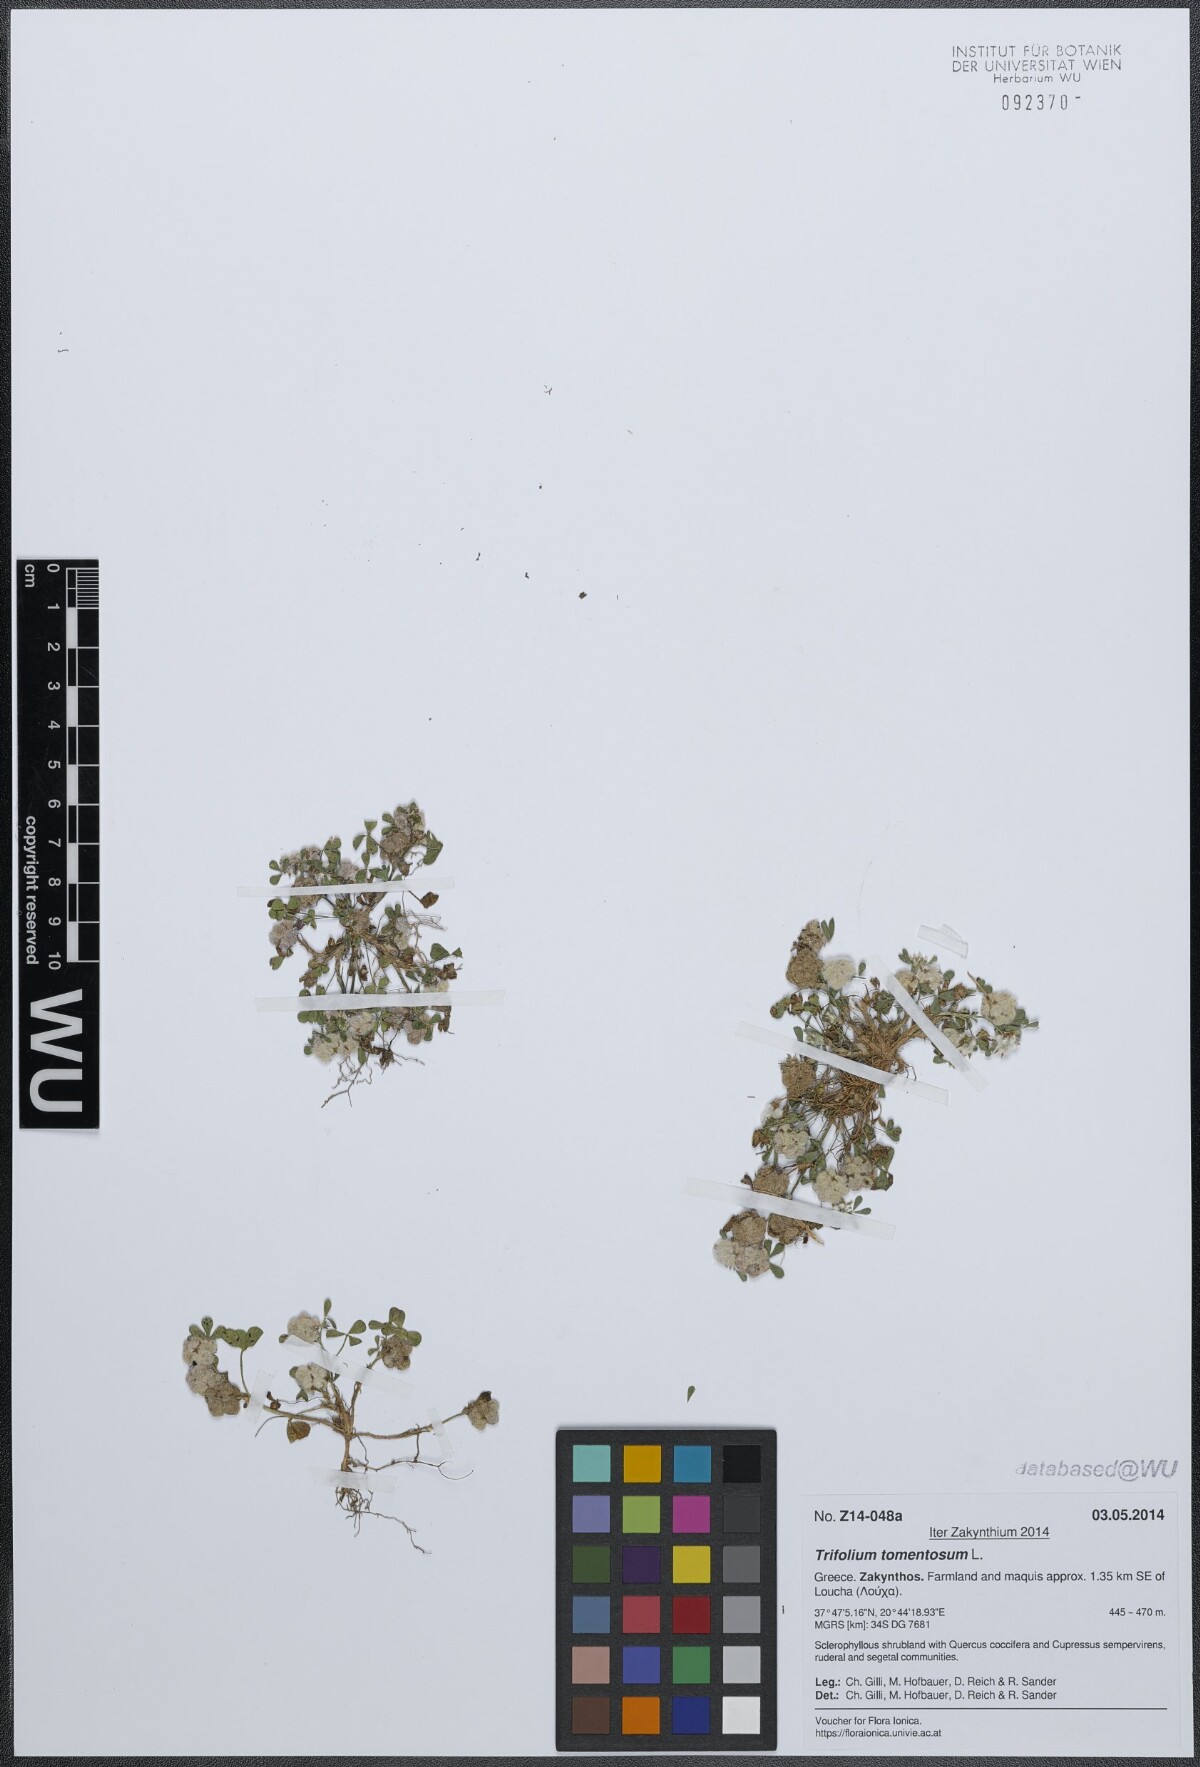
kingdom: Plantae
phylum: Tracheophyta
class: Magnoliopsida
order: Fabales
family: Fabaceae
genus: Trifolium
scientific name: Trifolium tomentosum
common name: Woolly clover
